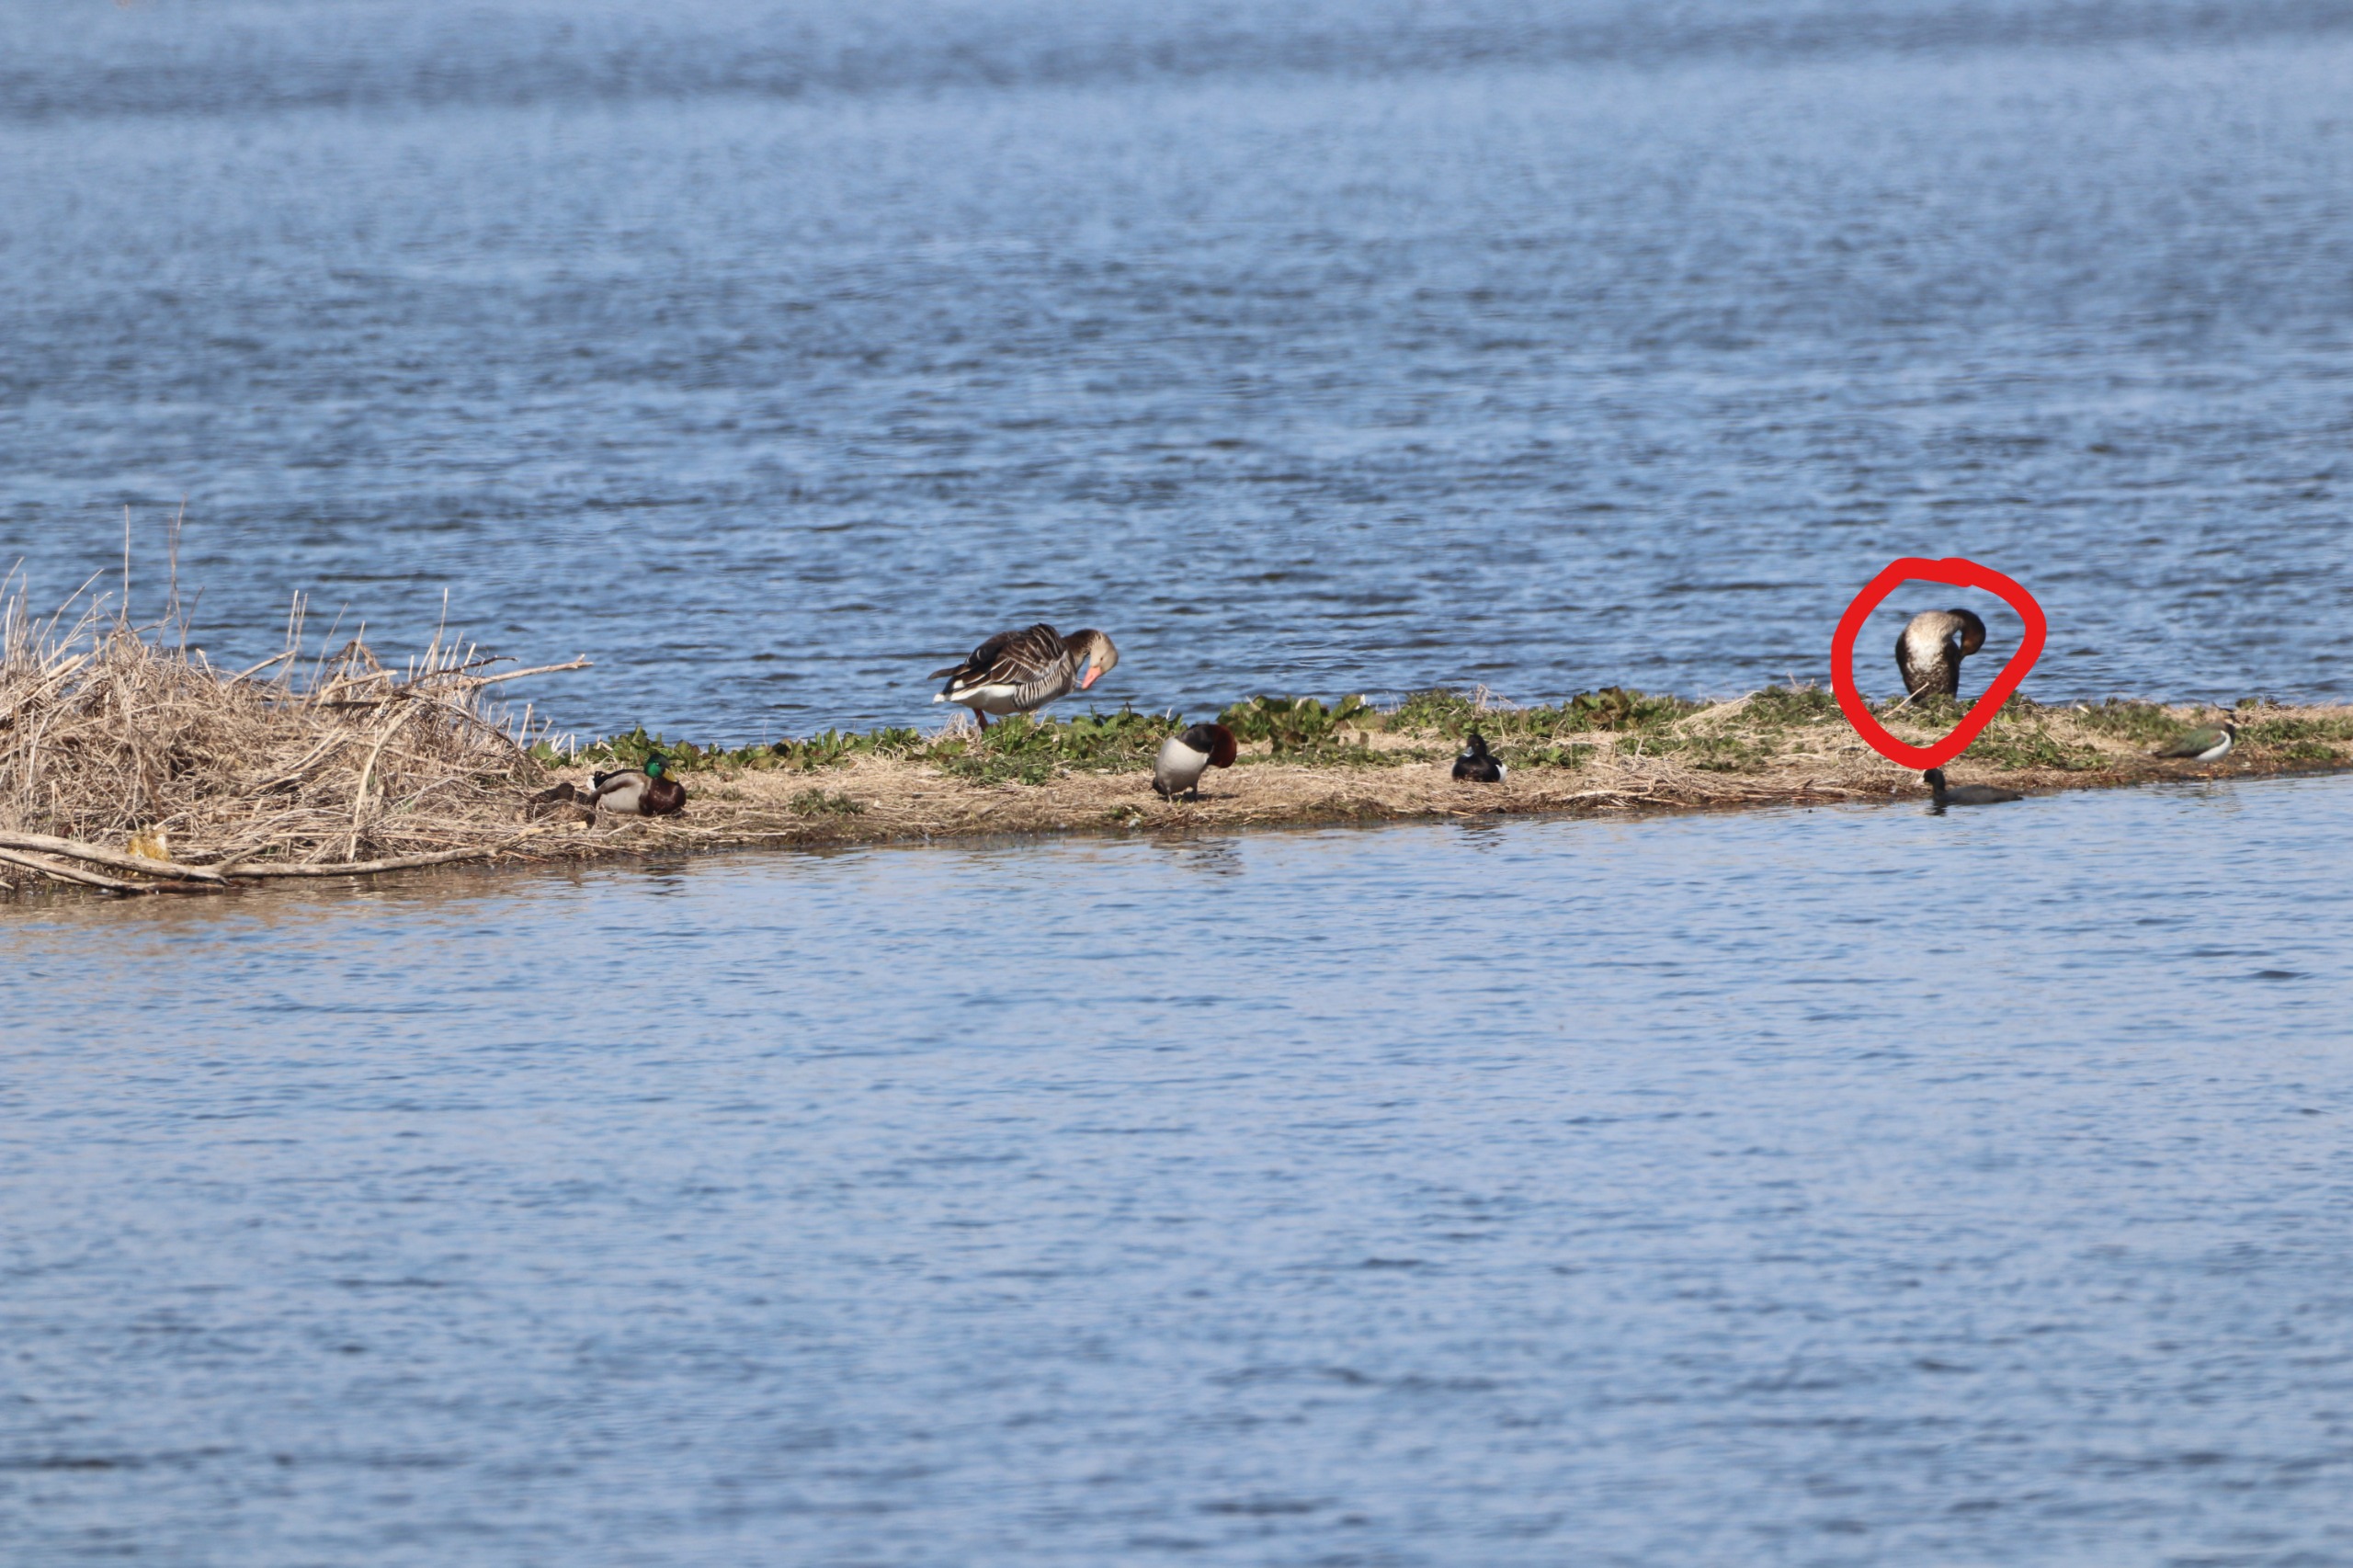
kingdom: Animalia
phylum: Chordata
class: Aves
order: Suliformes
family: Phalacrocoracidae
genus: Phalacrocorax
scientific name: Phalacrocorax carbo
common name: Skarv
